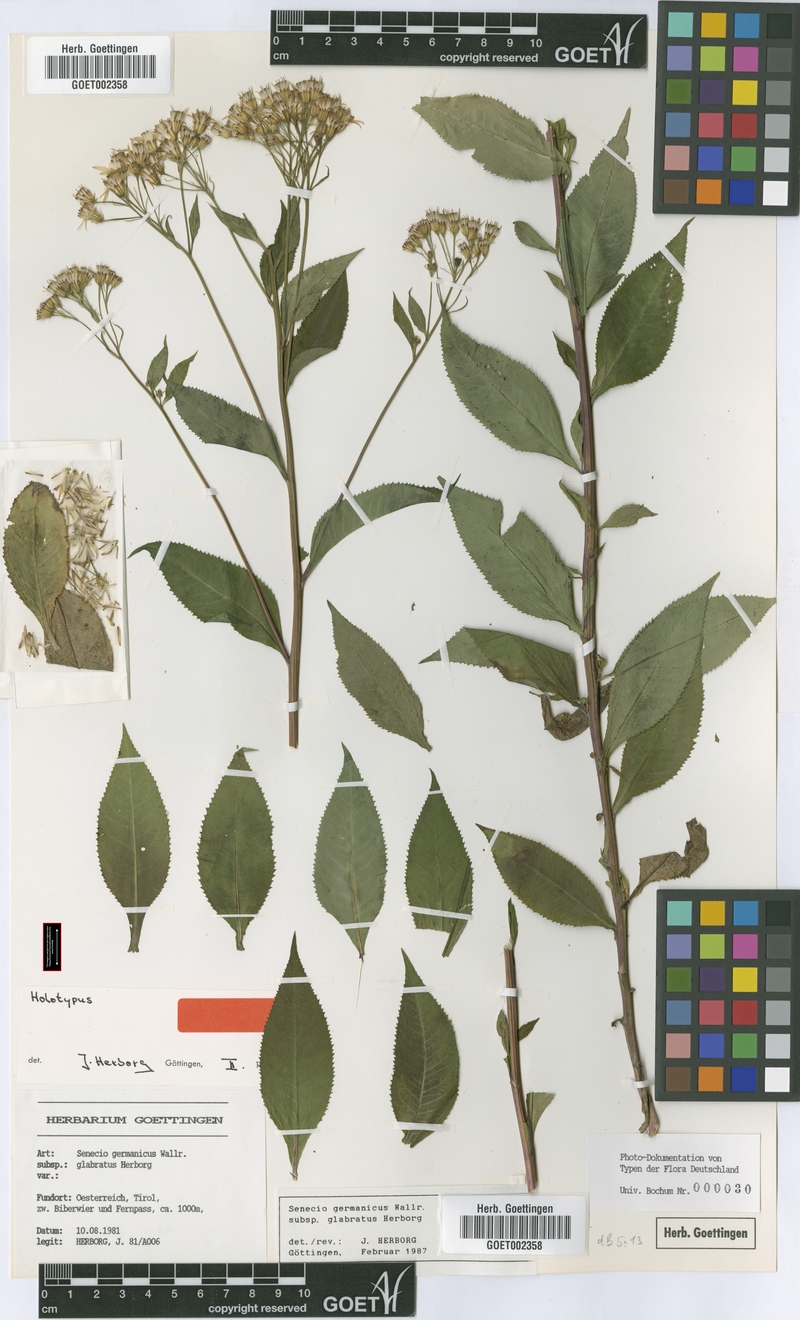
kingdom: Plantae
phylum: Tracheophyta
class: Magnoliopsida
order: Asterales
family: Asteraceae
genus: Senecio
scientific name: Senecio germanicus
